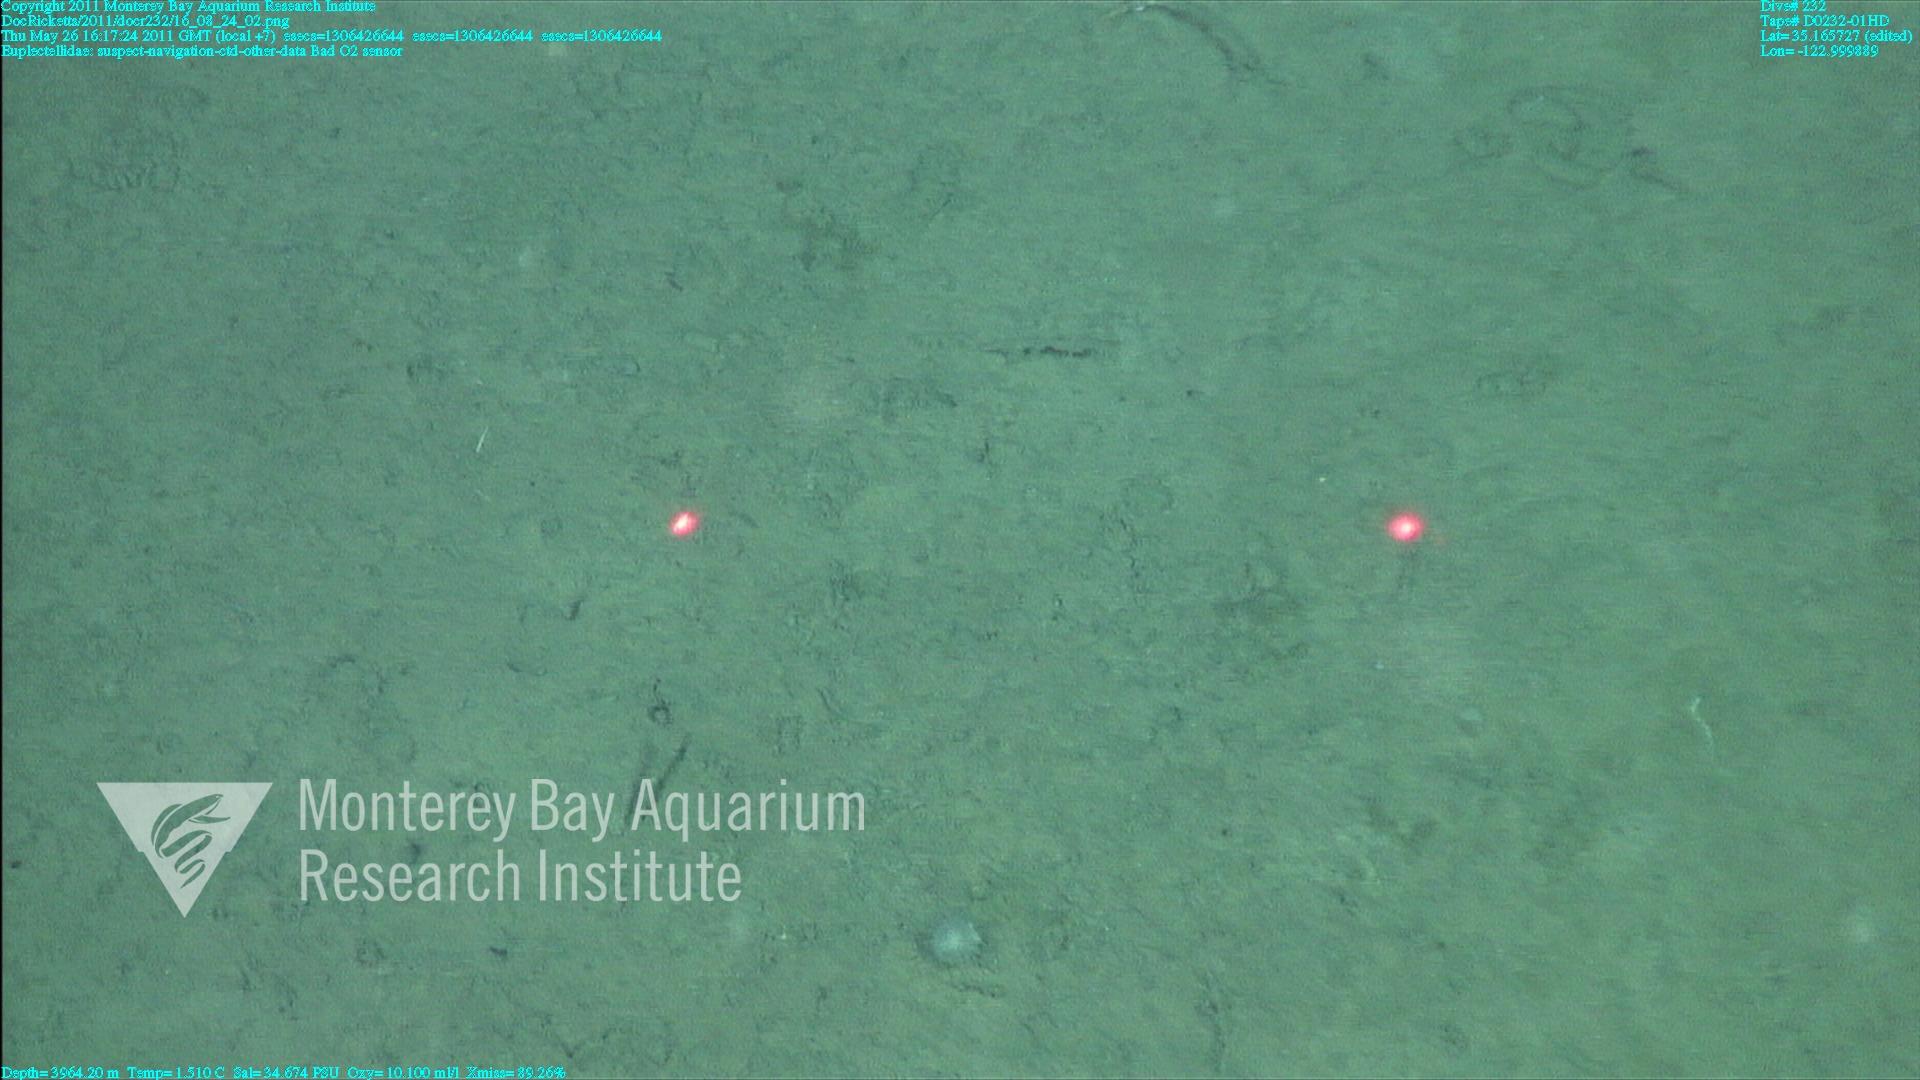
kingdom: Animalia
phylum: Porifera
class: Hexactinellida
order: Lyssacinosida
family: Euplectellidae
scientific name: Euplectellidae
